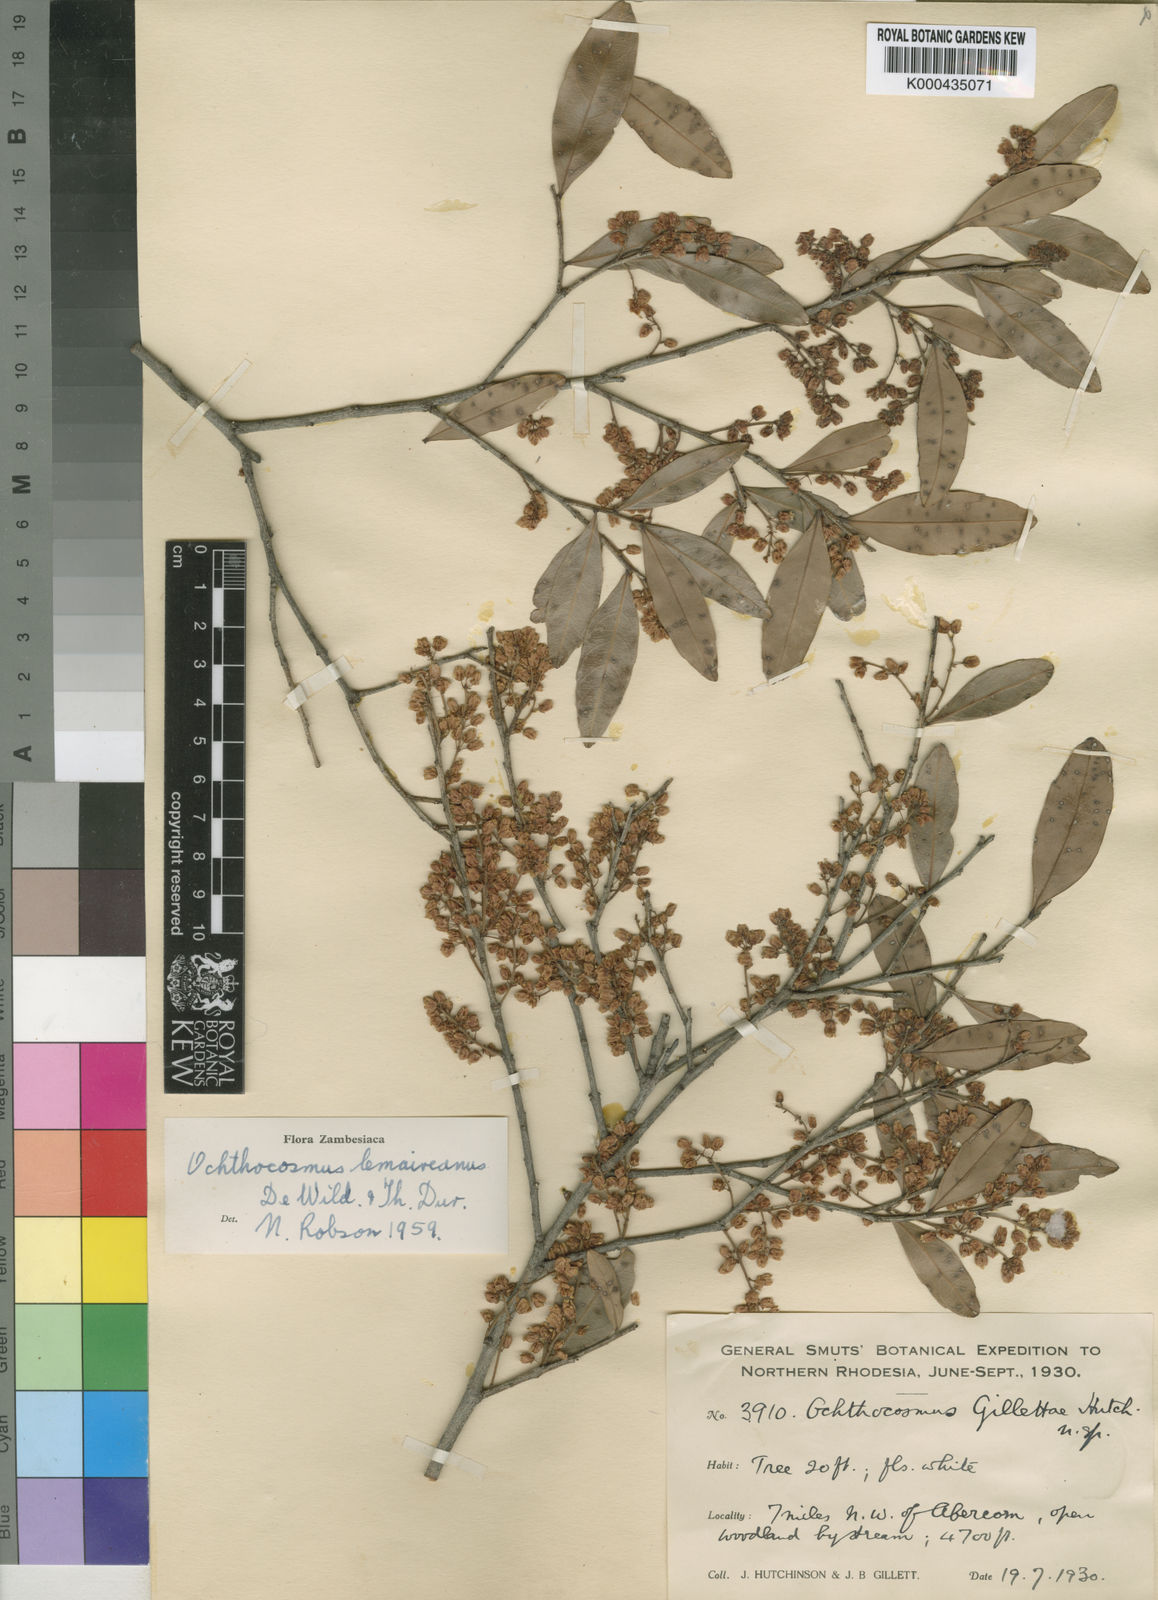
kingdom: Plantae
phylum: Tracheophyta
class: Magnoliopsida
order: Malpighiales
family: Ixonanthaceae
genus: Phyllocosmus
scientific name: Phyllocosmus lemaireanus
